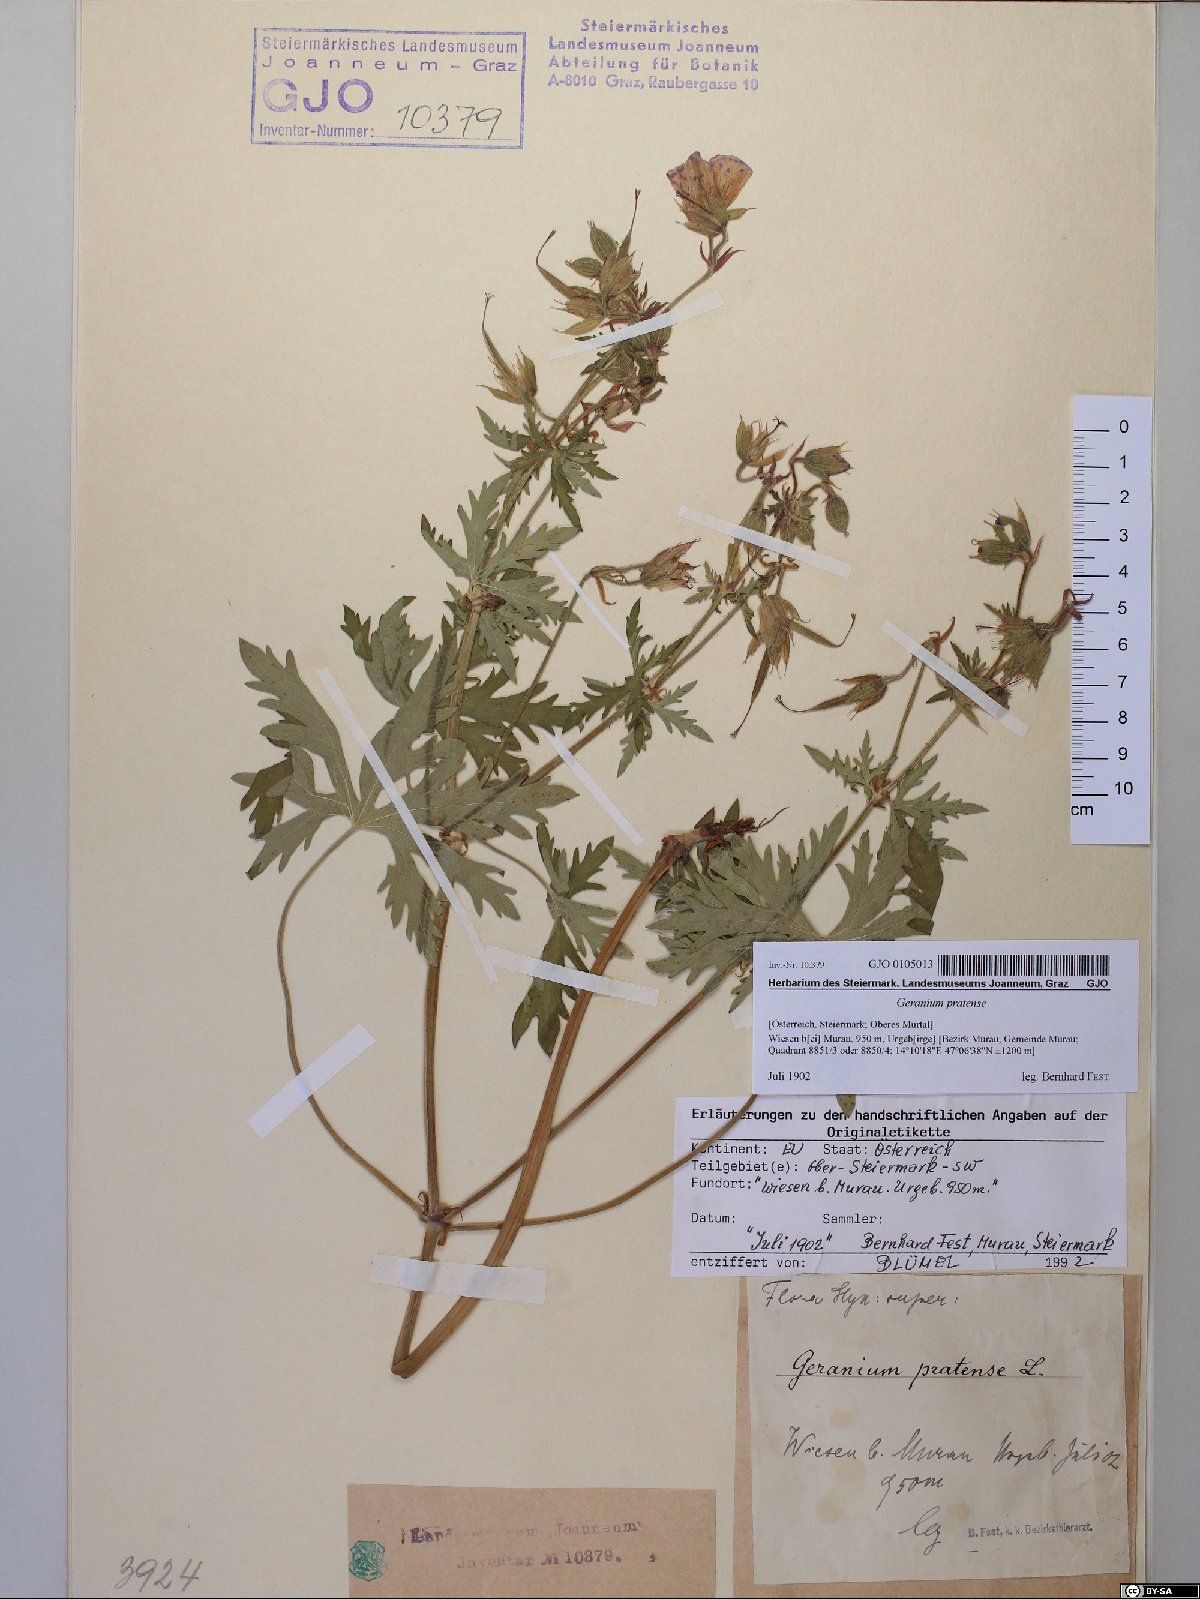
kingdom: Plantae
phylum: Tracheophyta
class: Magnoliopsida
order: Geraniales
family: Geraniaceae
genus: Geranium
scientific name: Geranium pratense
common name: Meadow crane's-bill
